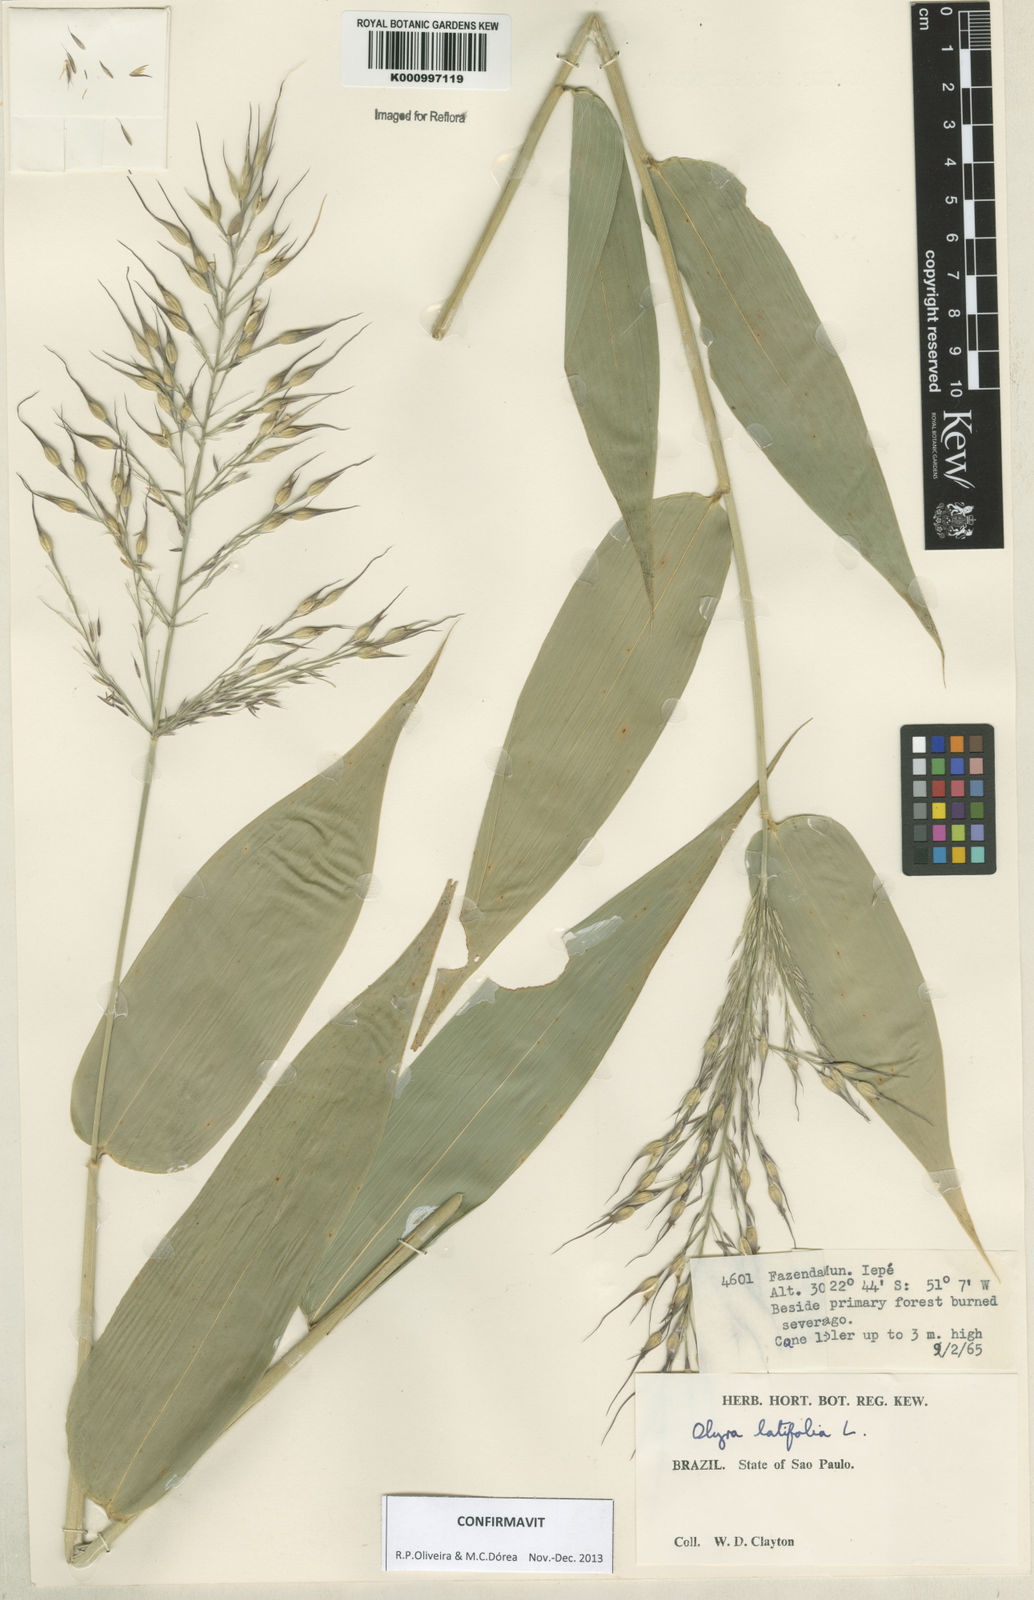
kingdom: Plantae
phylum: Tracheophyta
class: Liliopsida
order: Poales
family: Poaceae
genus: Olyra
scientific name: Olyra latifolia
